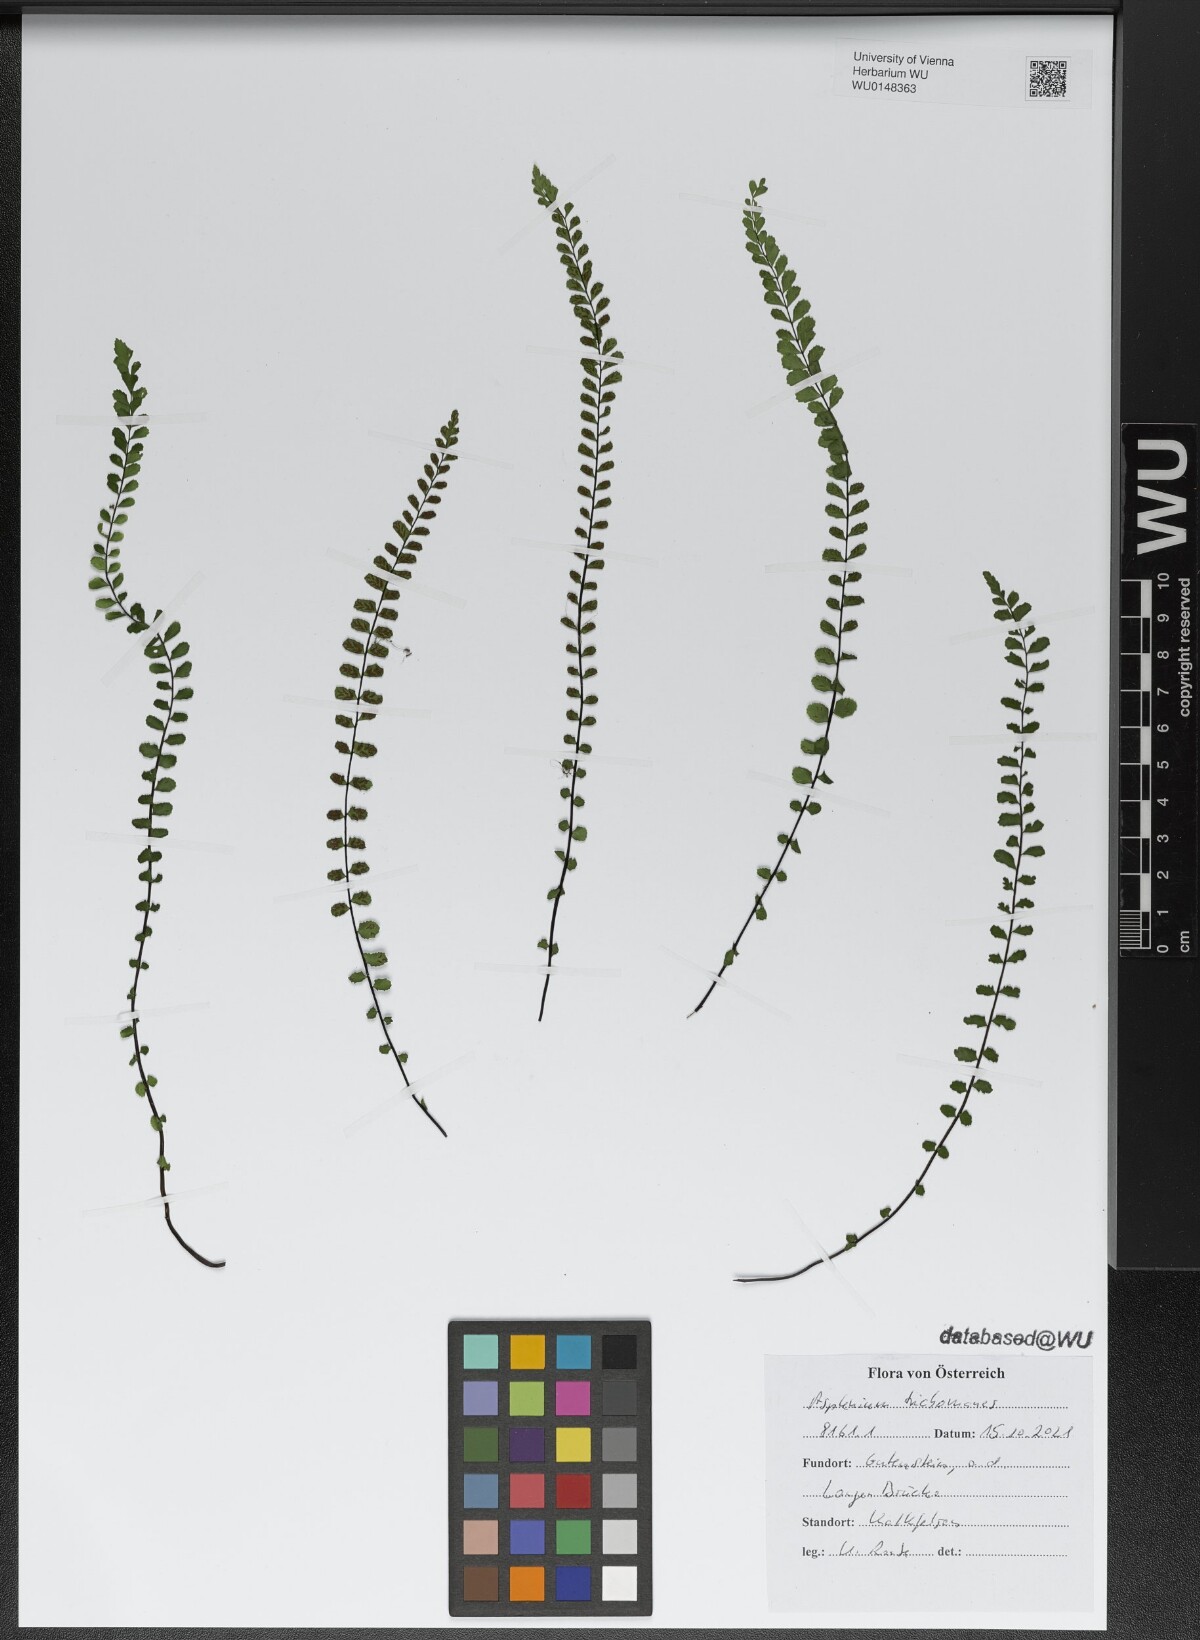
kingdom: Plantae
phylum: Tracheophyta
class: Polypodiopsida
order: Polypodiales
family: Aspleniaceae
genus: Asplenium
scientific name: Asplenium trichomanes
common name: Maidenhair spleenwort
